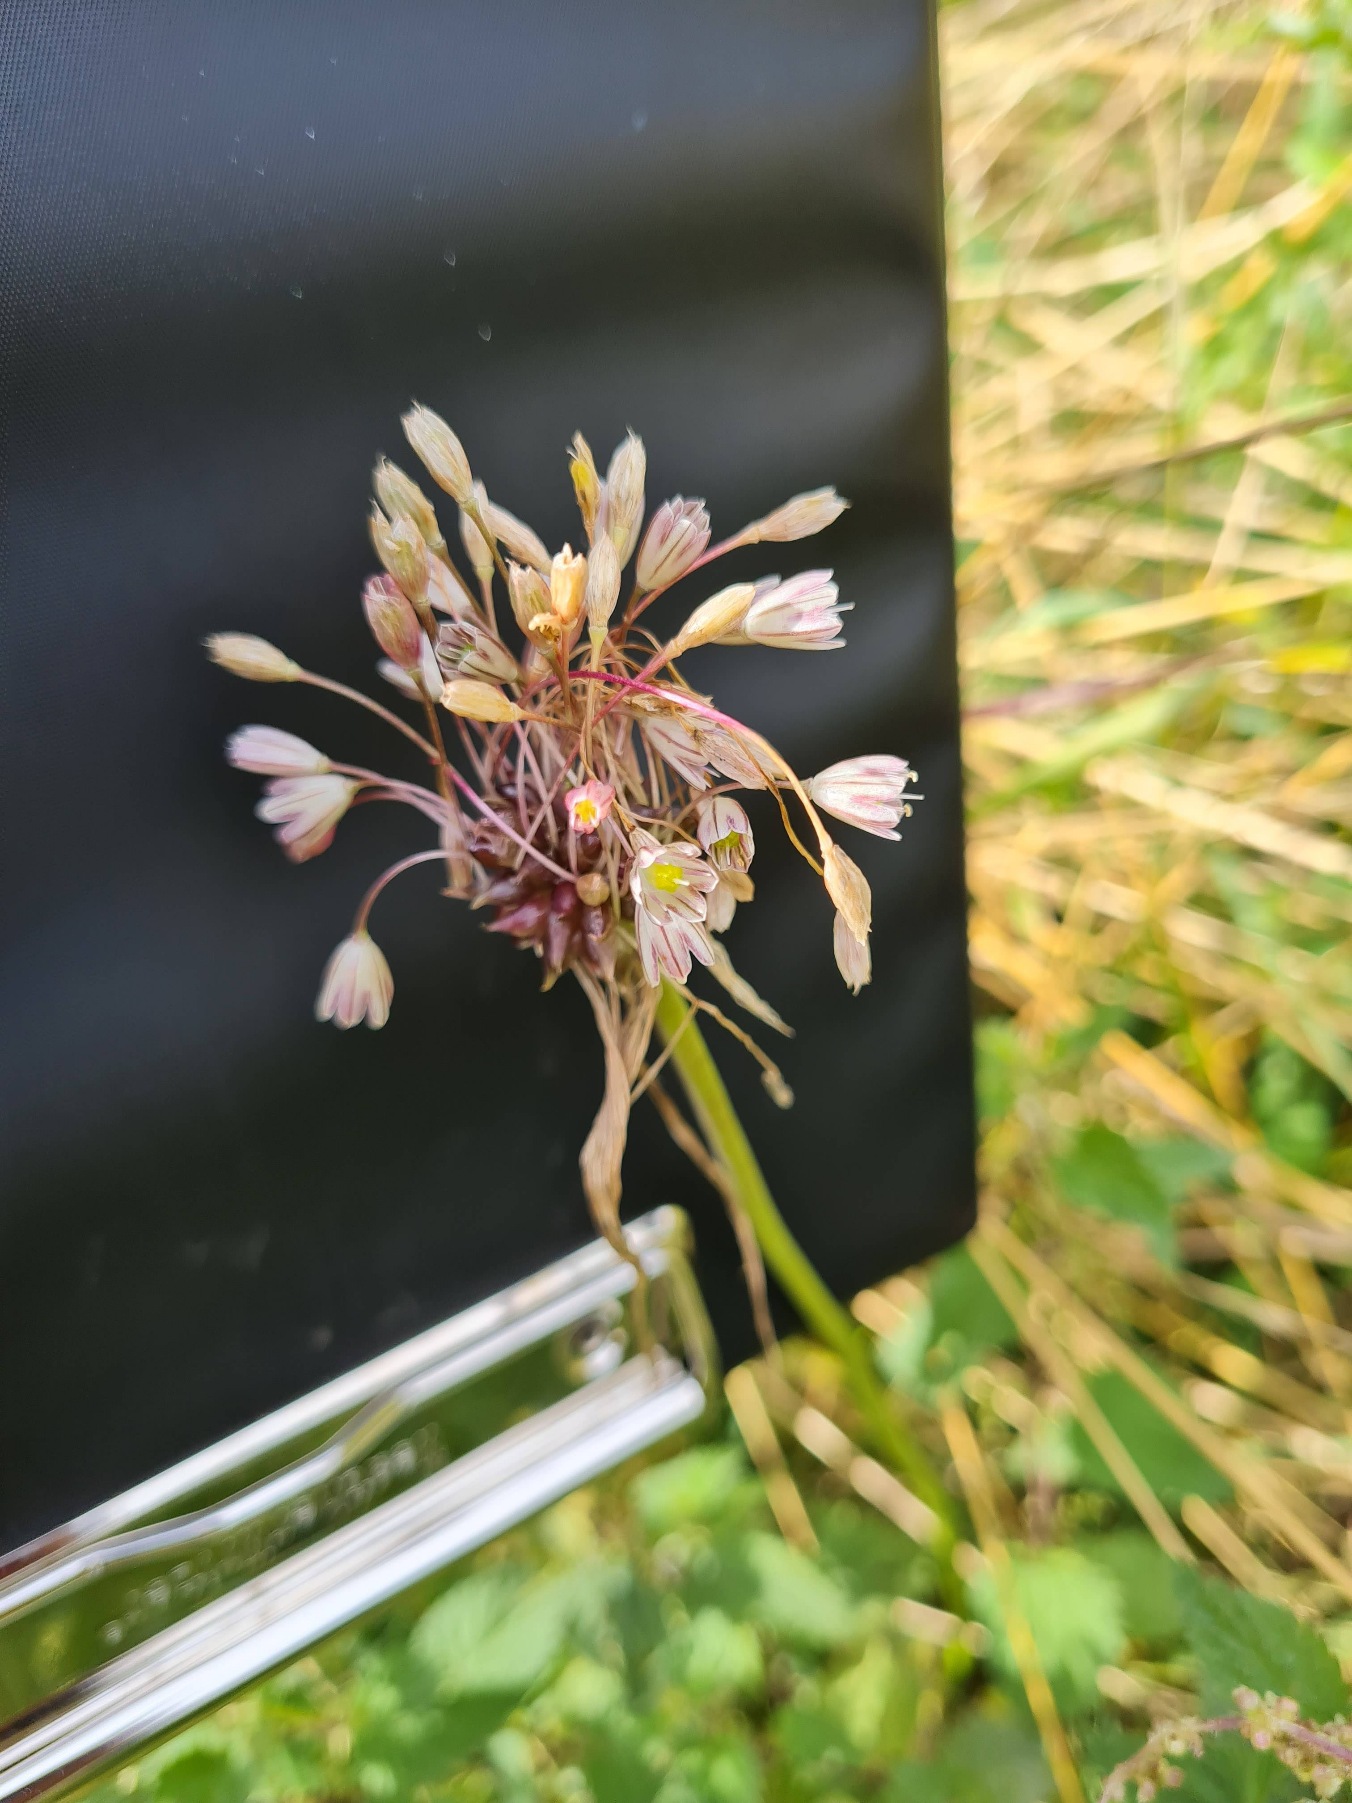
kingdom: Plantae
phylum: Tracheophyta
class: Liliopsida
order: Asparagales
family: Amaryllidaceae
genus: Allium
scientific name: Allium oleraceum
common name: Vild løg
